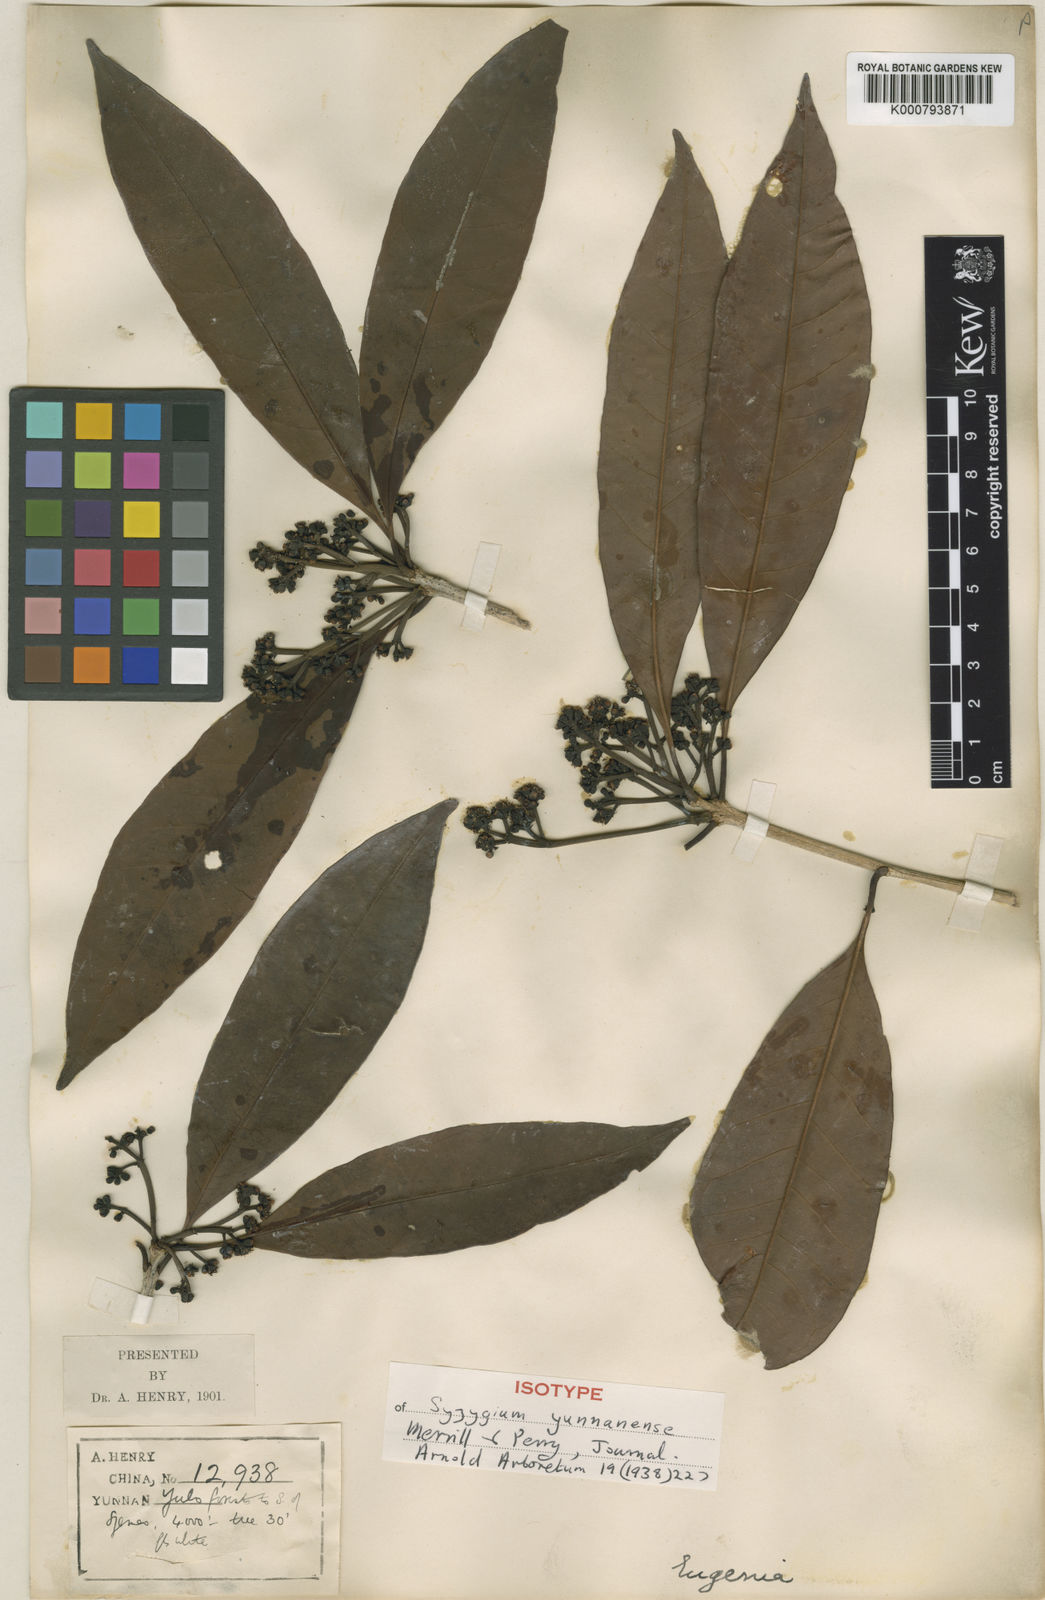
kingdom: Plantae
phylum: Tracheophyta
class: Magnoliopsida
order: Myrtales
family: Myrtaceae
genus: Syzygium
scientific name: Syzygium yunnanense
